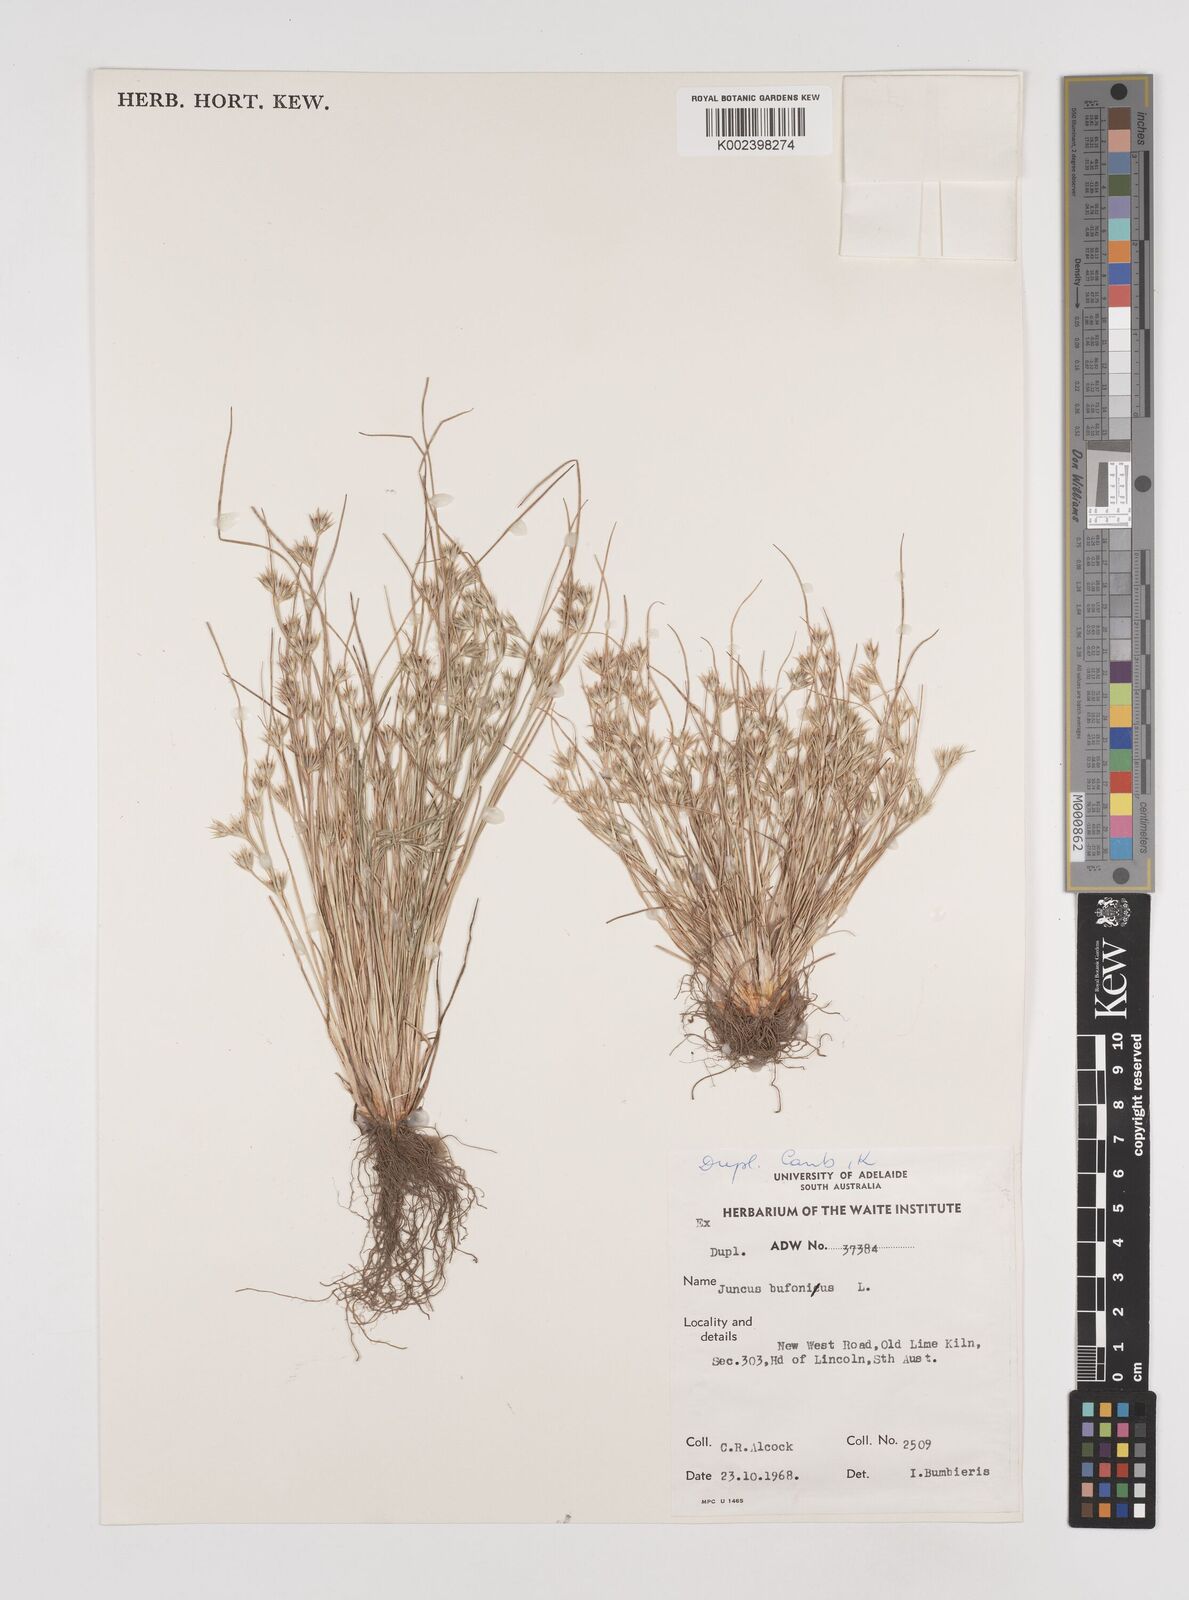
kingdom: Plantae
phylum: Tracheophyta
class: Liliopsida
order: Poales
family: Juncaceae
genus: Juncus
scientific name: Juncus bufonius
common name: Toad rush
